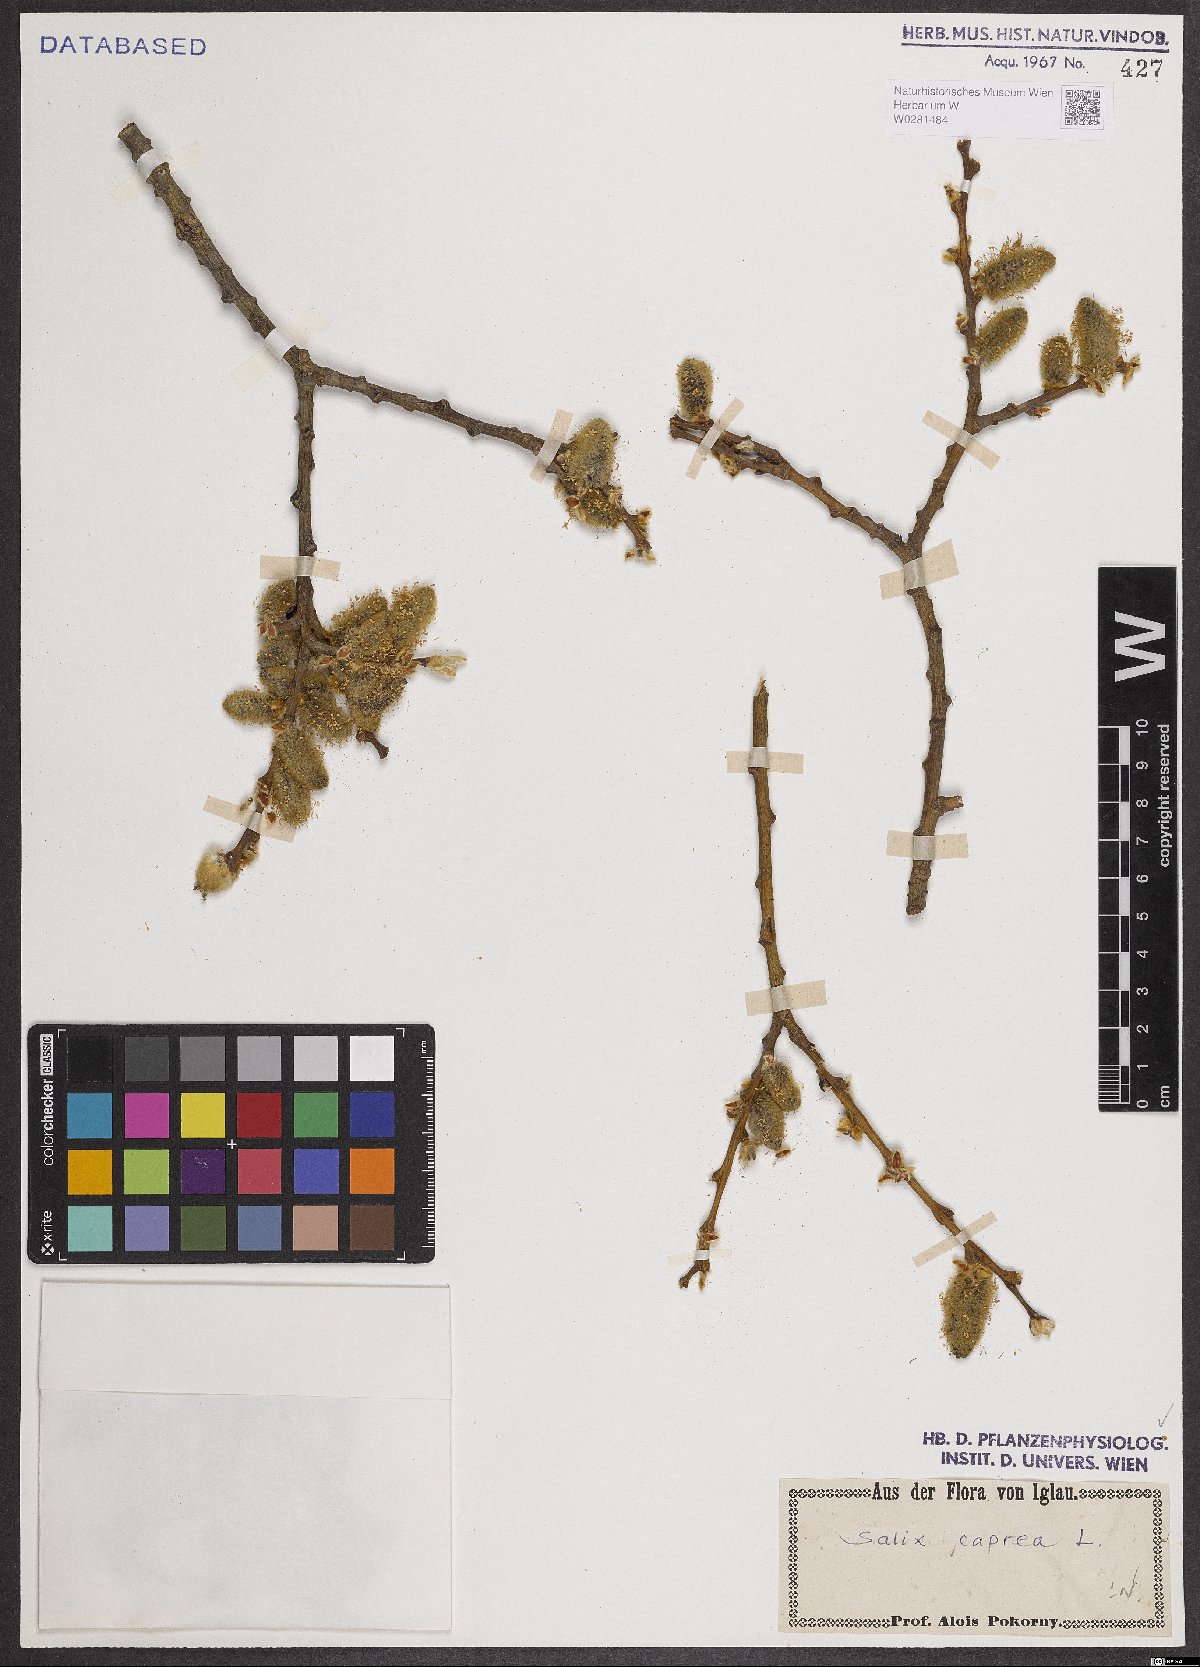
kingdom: Plantae
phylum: Tracheophyta
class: Magnoliopsida
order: Malpighiales
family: Salicaceae
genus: Salix
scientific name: Salix caprea
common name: Goat willow
